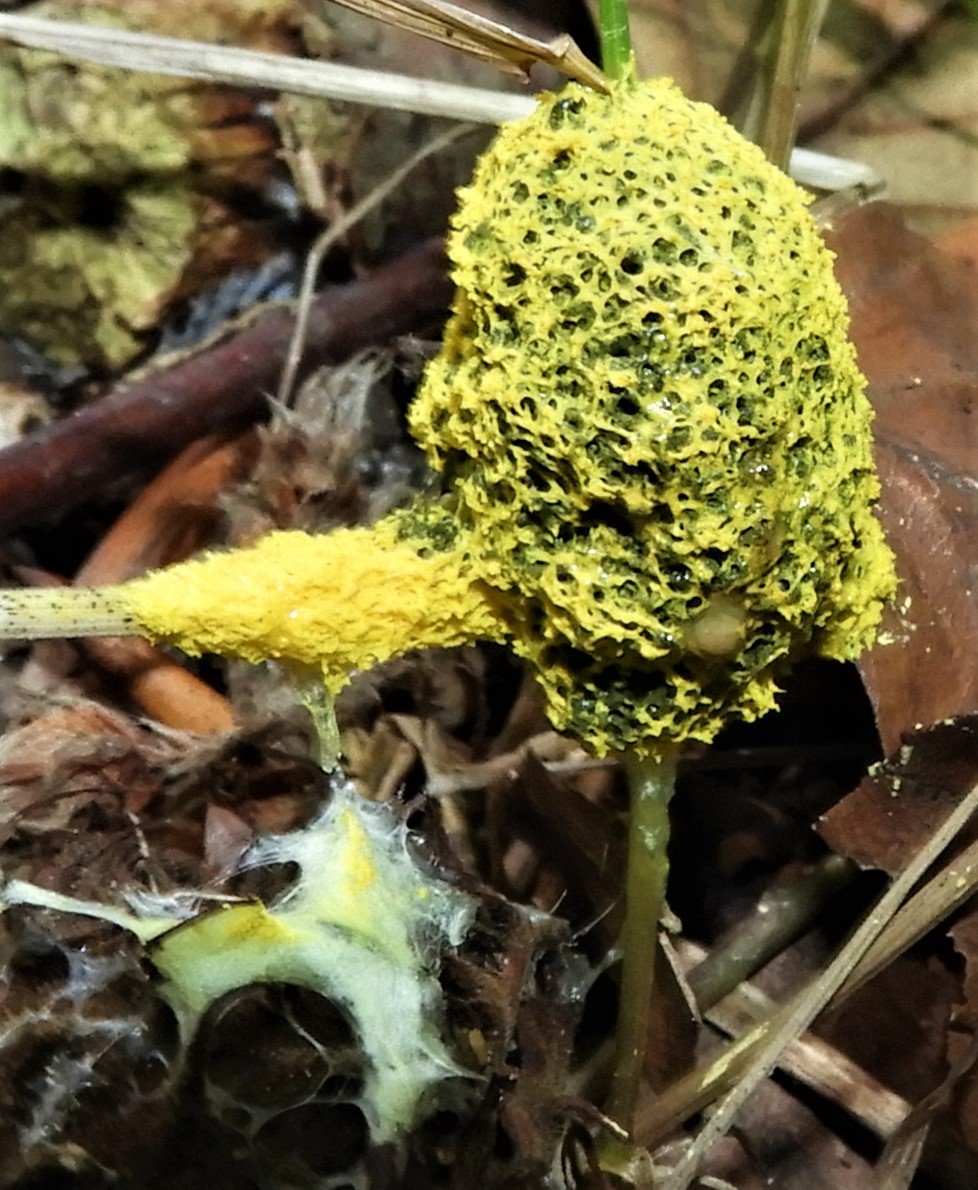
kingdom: Protozoa
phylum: Mycetozoa
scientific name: Mycetozoa
